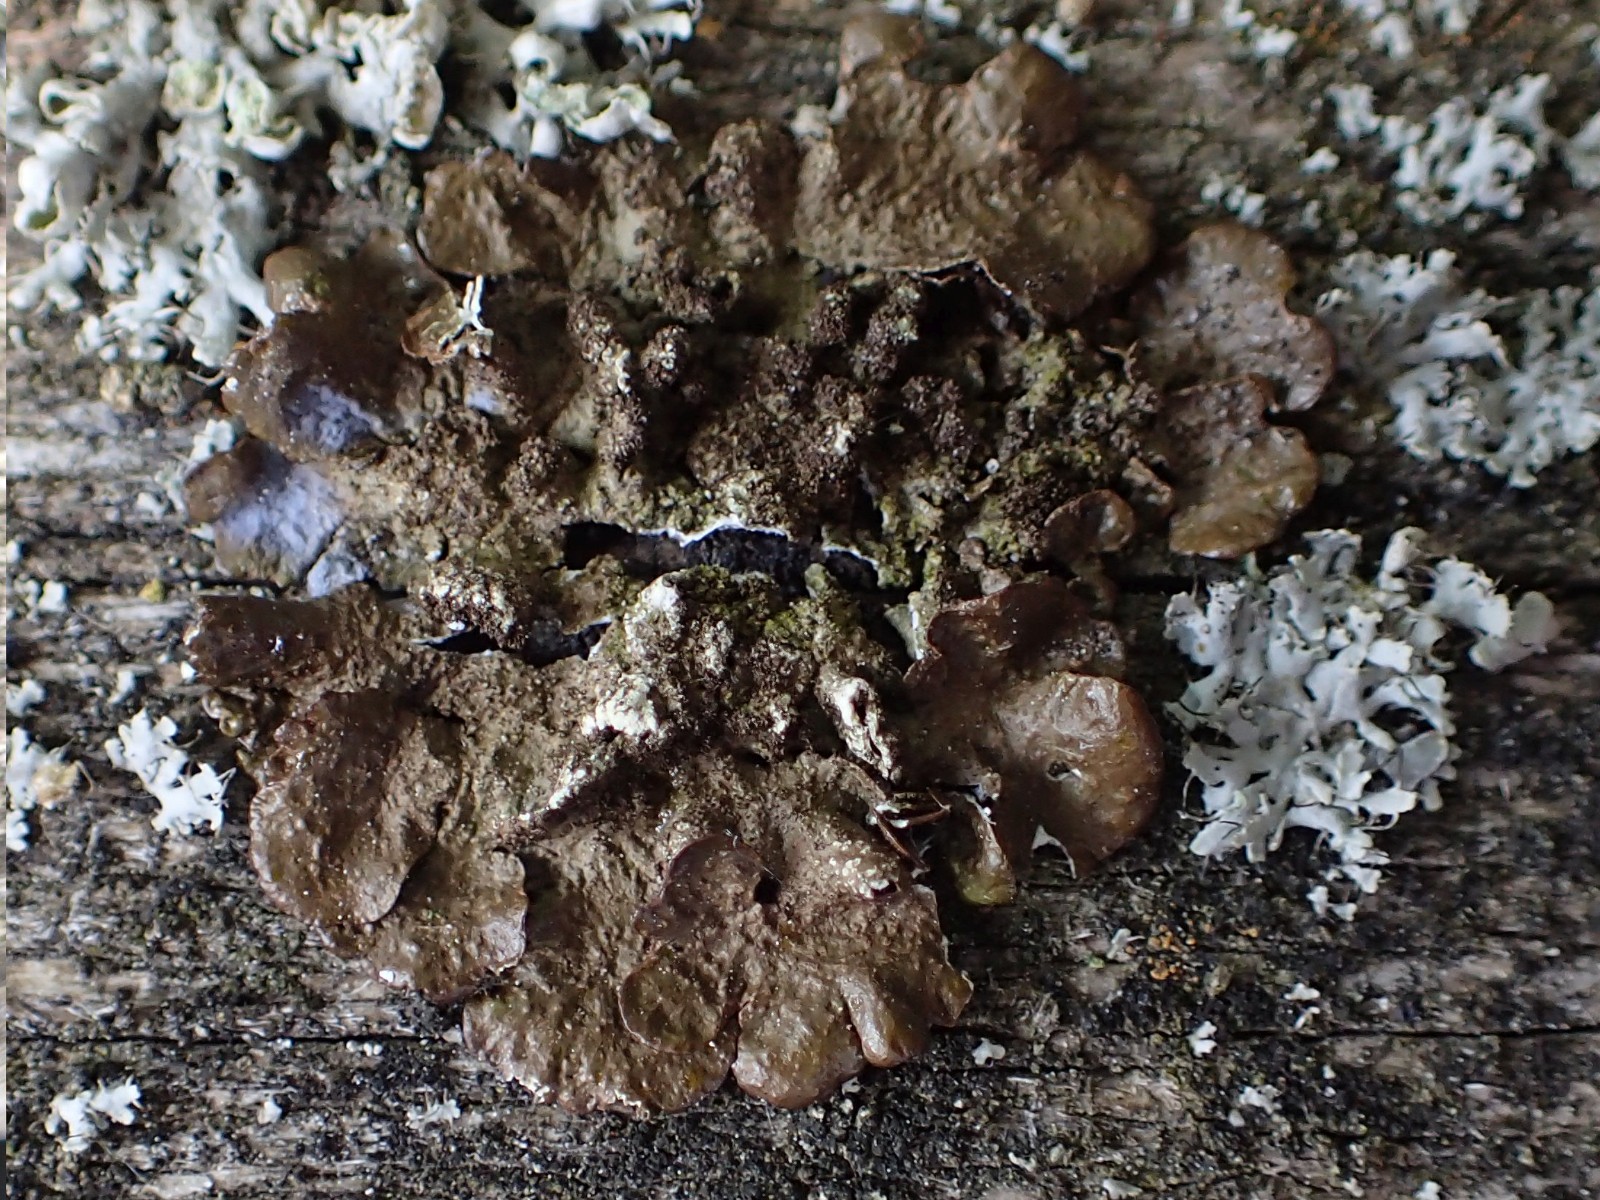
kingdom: Fungi
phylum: Ascomycota
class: Lecanoromycetes
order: Lecanorales
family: Parmeliaceae
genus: Melanelixia
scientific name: Melanelixia subaurifera
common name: guldpudret skållav
